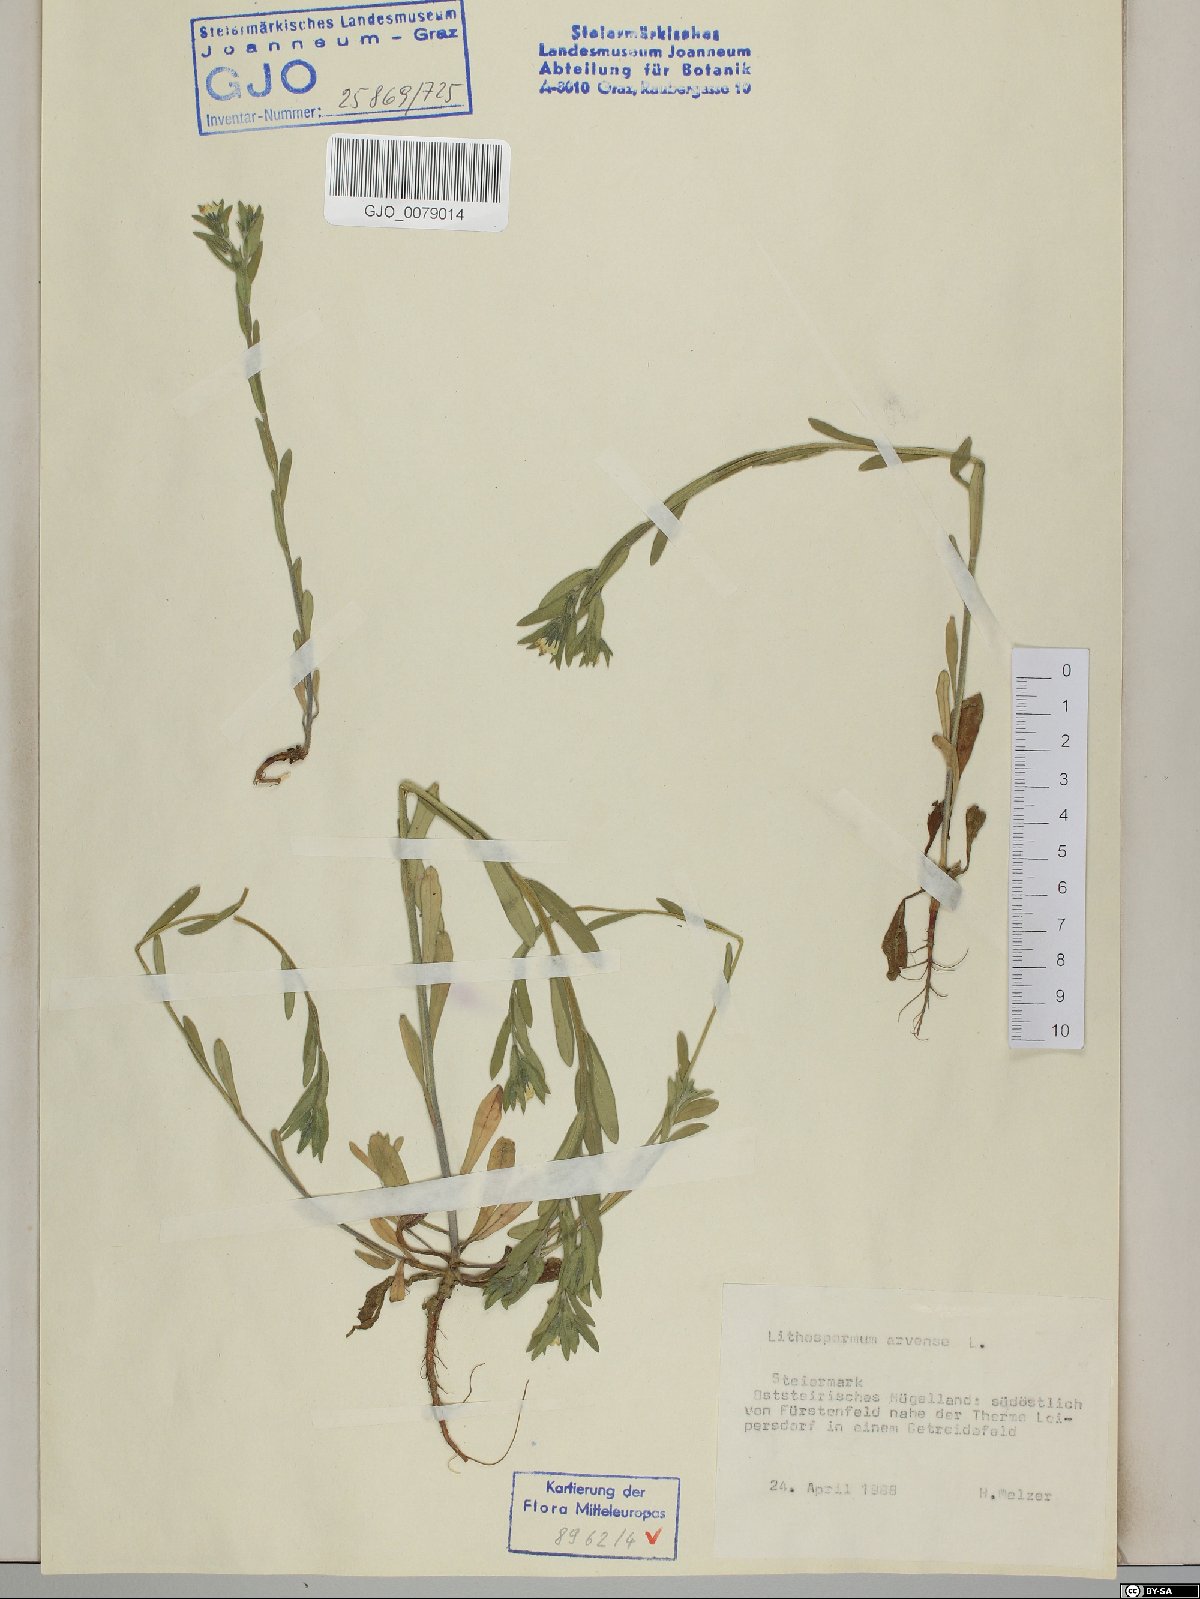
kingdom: Plantae
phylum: Tracheophyta
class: Magnoliopsida
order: Boraginales
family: Boraginaceae
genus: Buglossoides
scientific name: Buglossoides arvensis
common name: Corn gromwell
